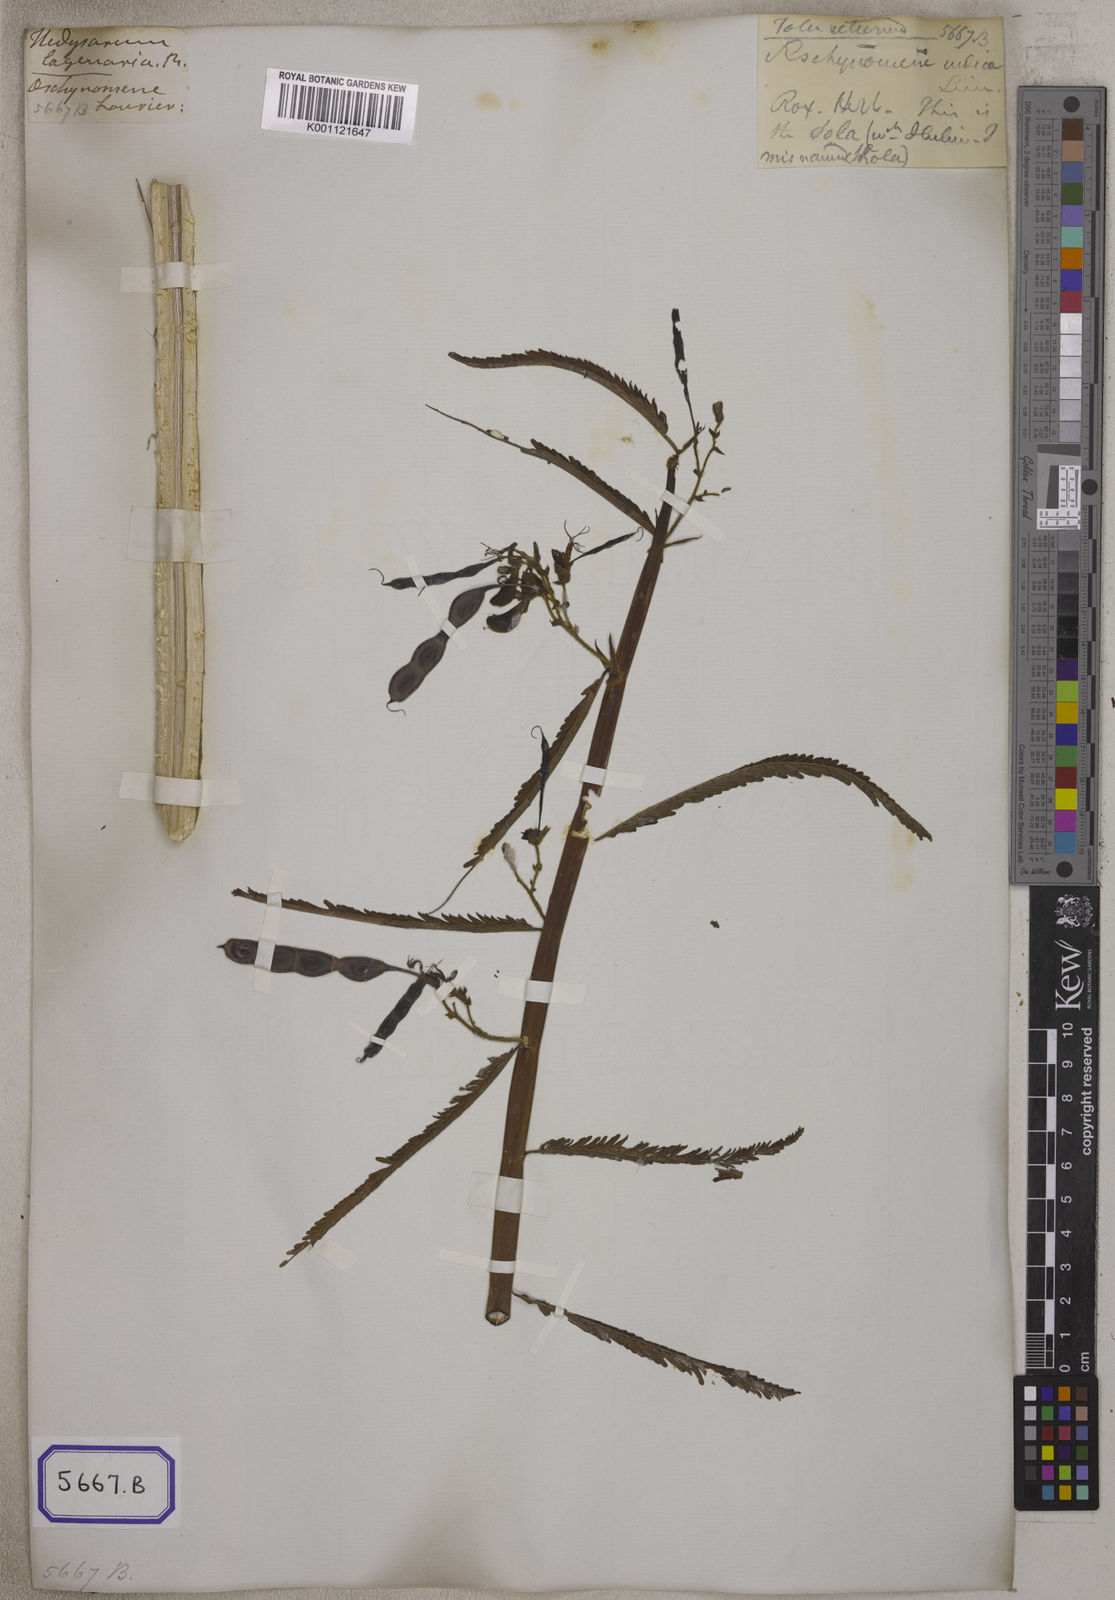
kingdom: Plantae
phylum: Tracheophyta
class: Magnoliopsida
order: Fabales
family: Fabaceae
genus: Aeschynomene
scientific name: Aeschynomene aspera
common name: Pith plant
